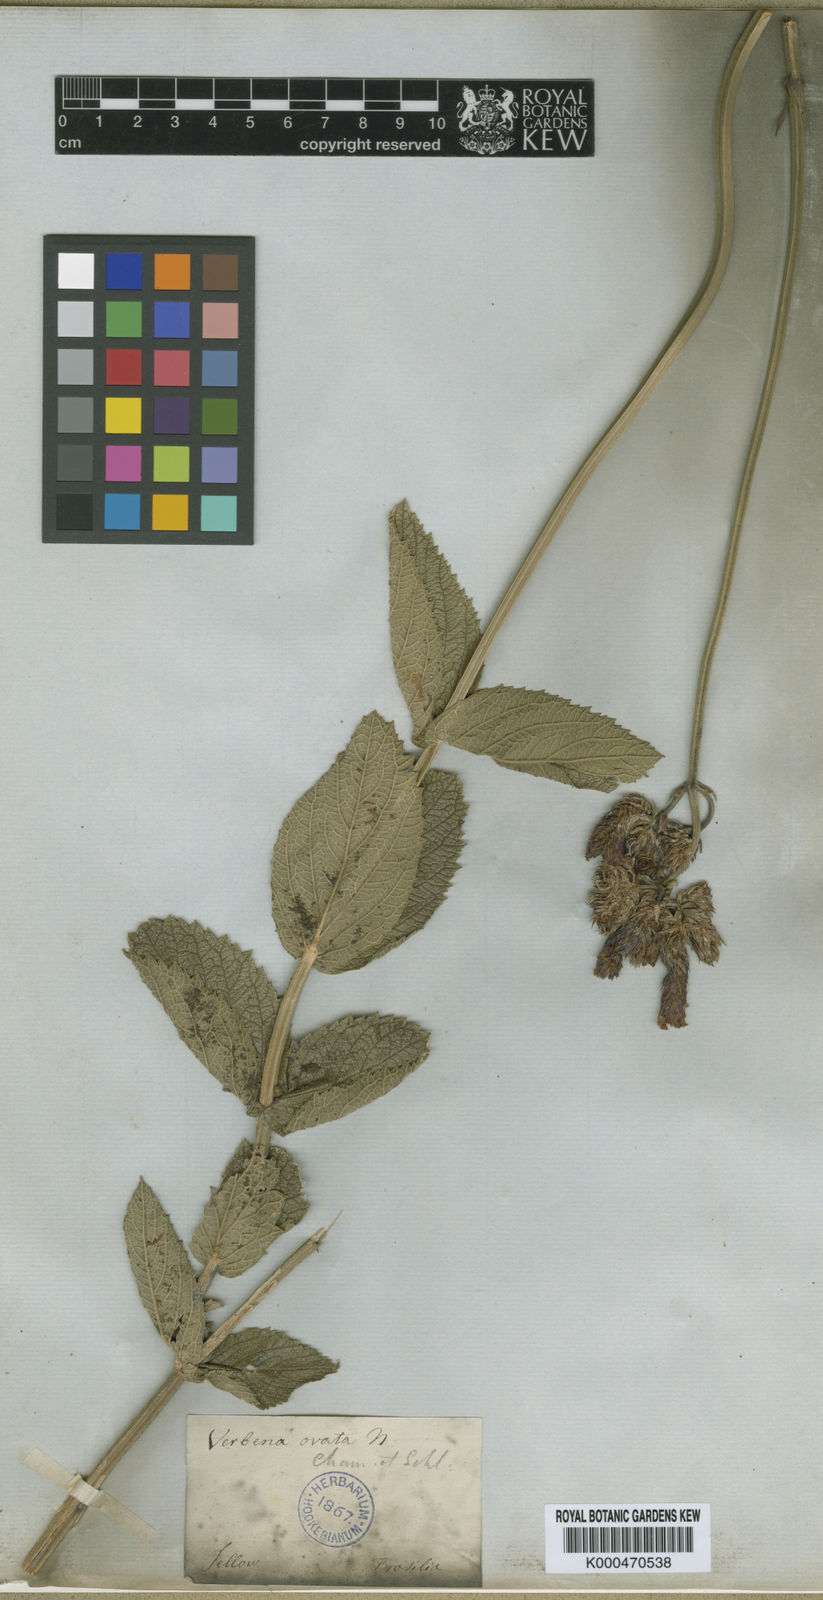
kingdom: Plantae
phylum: Tracheophyta
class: Magnoliopsida
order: Lamiales
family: Verbenaceae
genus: Verbena
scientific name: Verbena ovata
